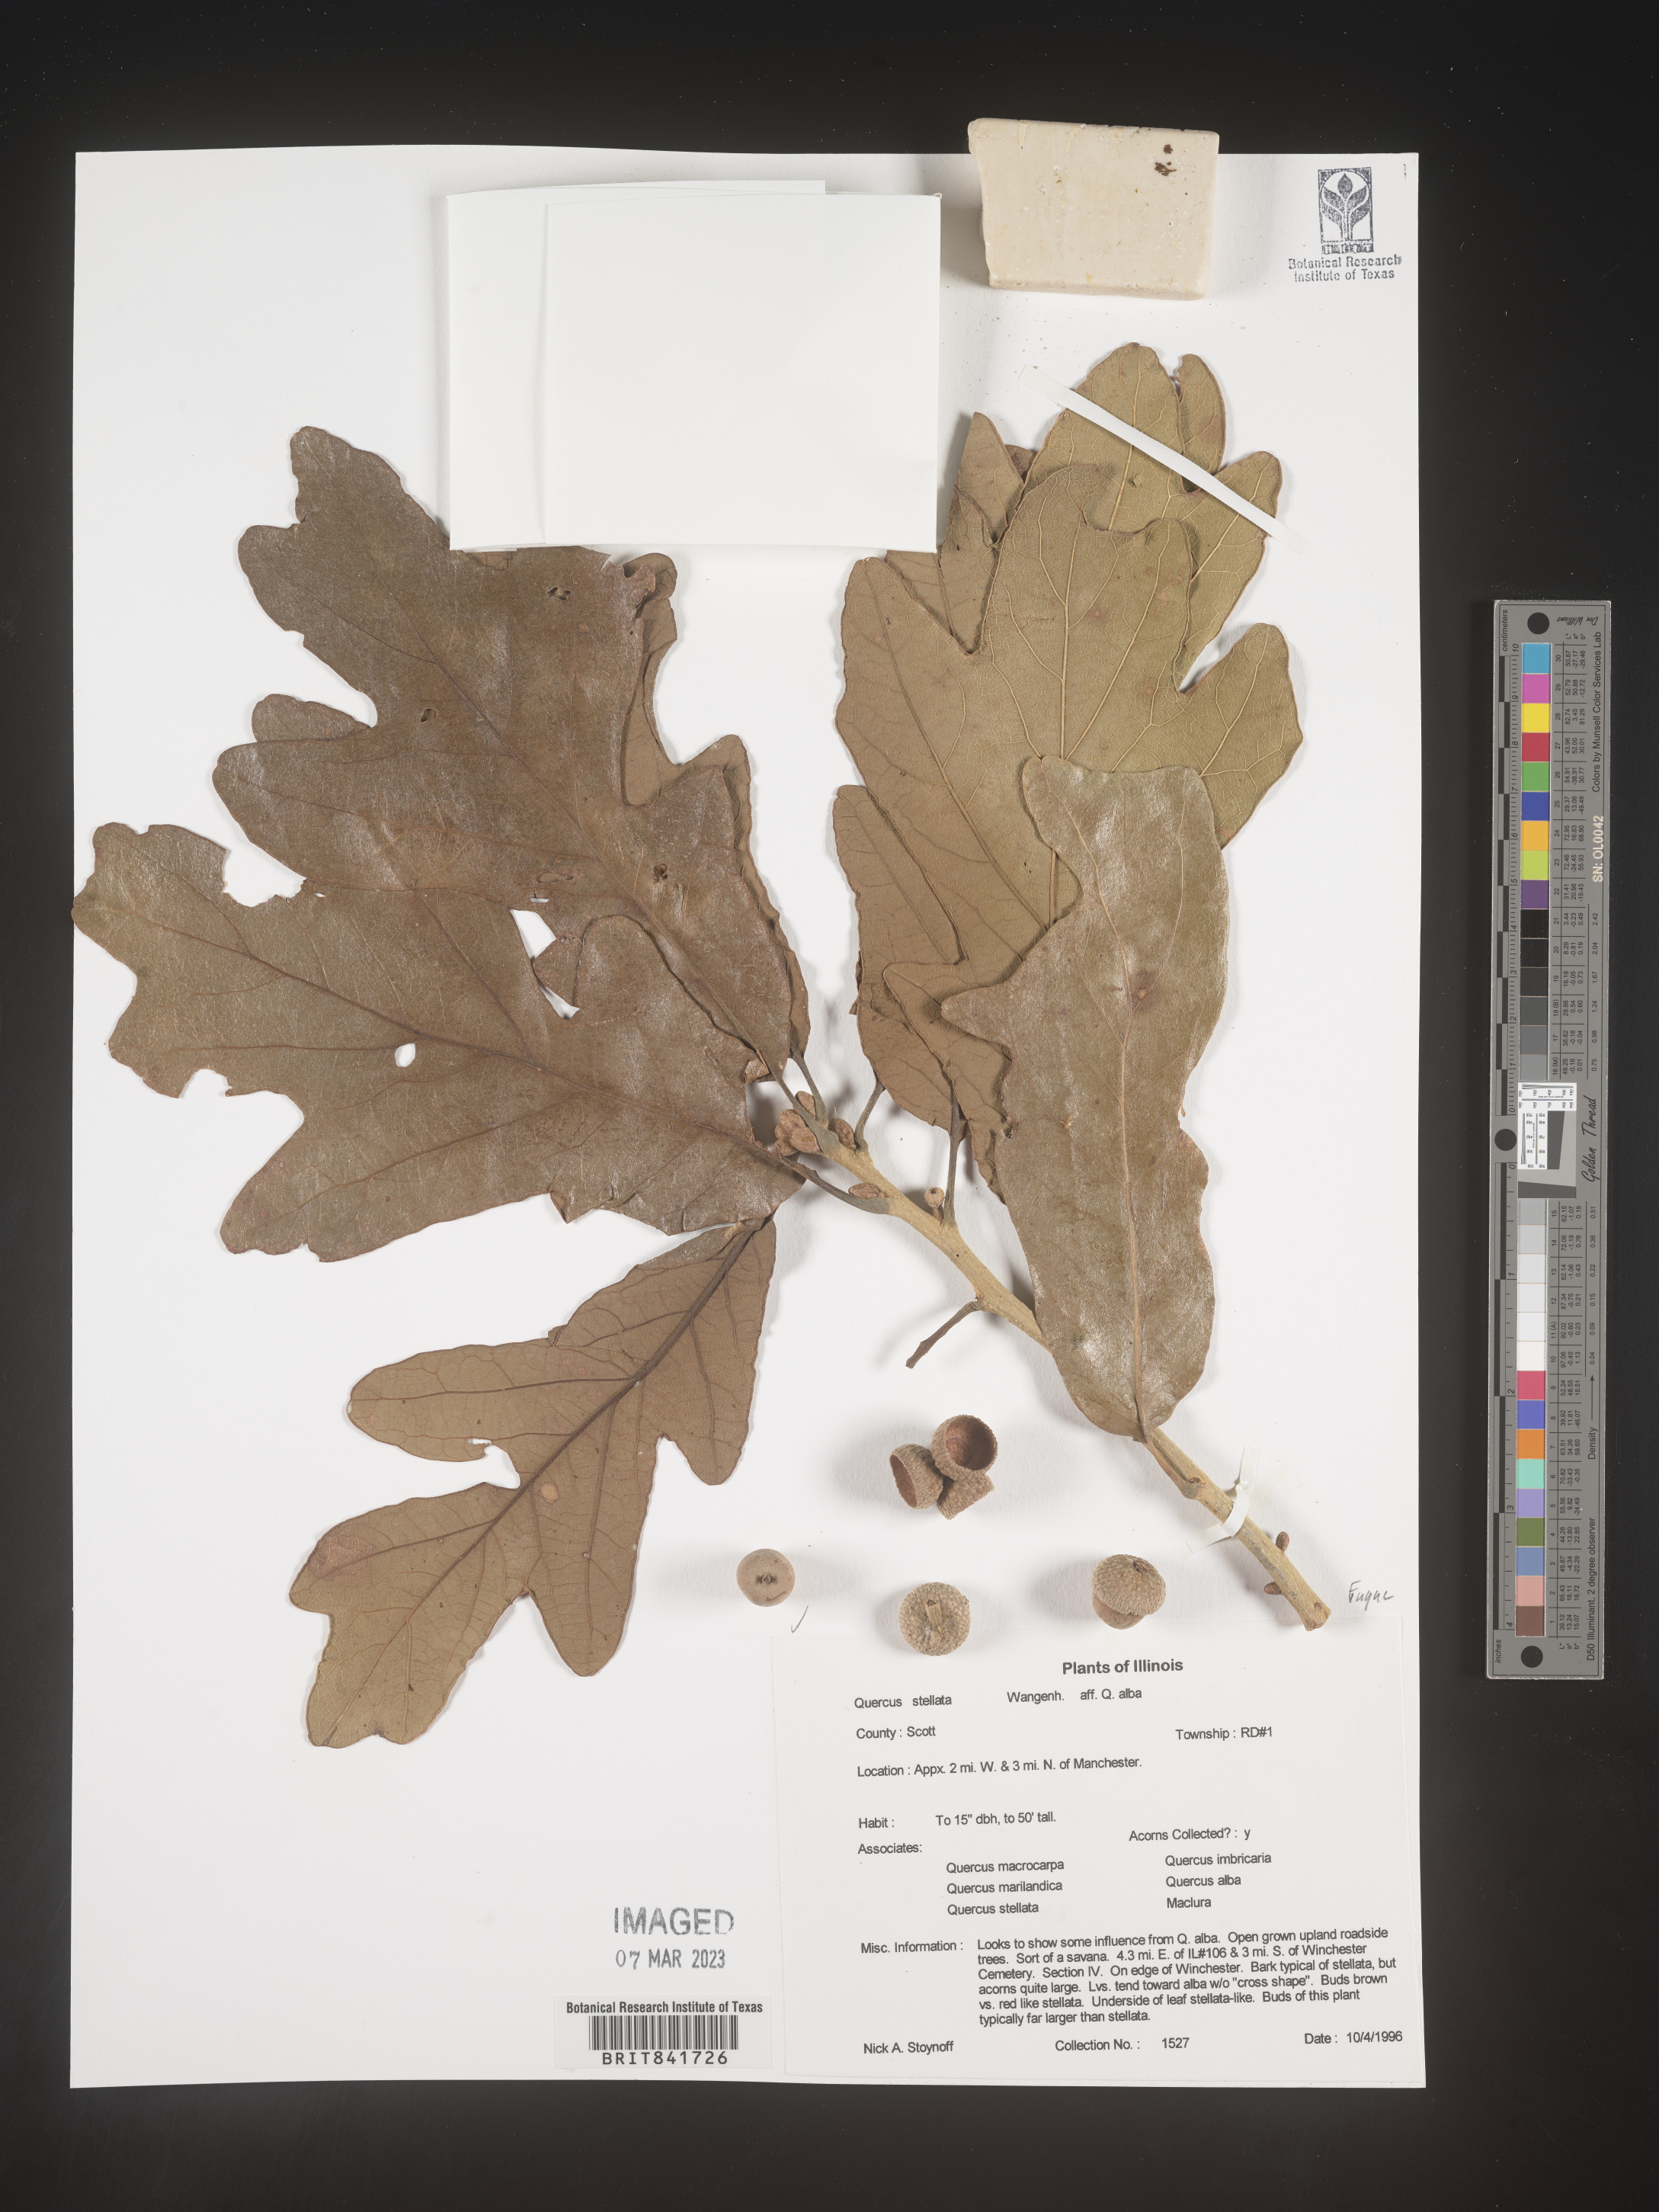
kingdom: Plantae
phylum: Tracheophyta
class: Magnoliopsida
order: Fagales
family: Fagaceae
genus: Quercus
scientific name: Quercus stellata
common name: Post oak
